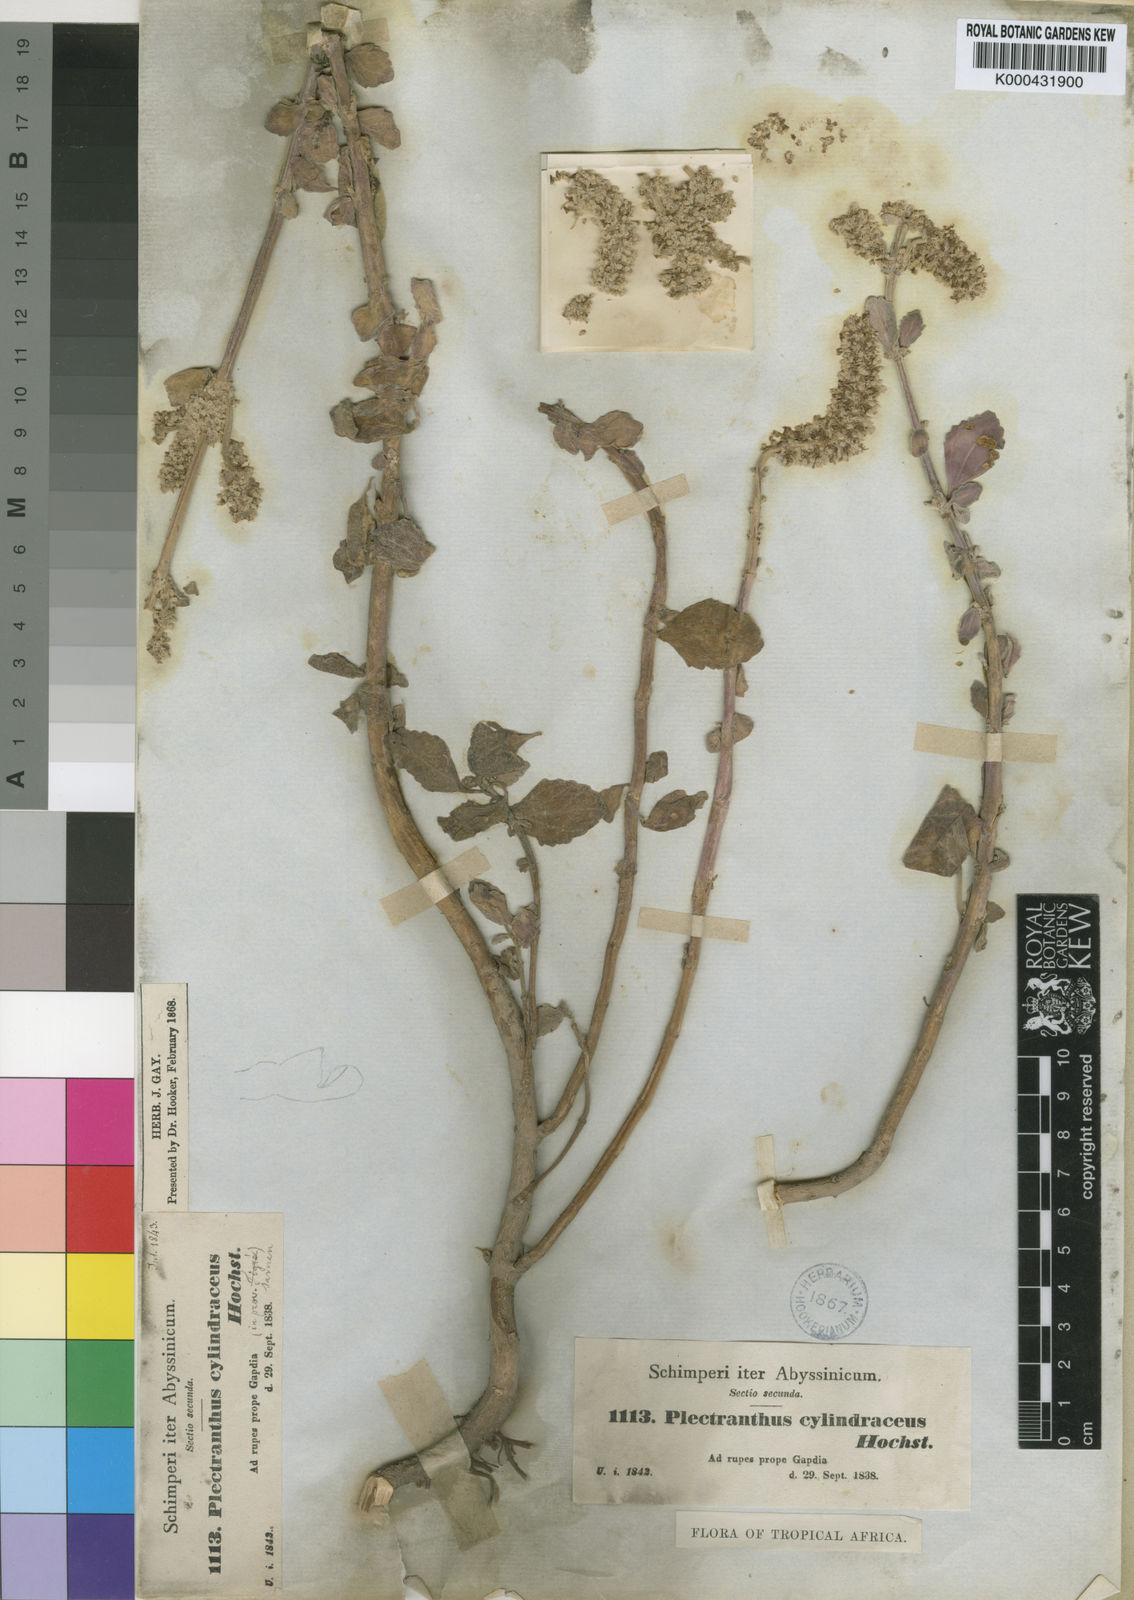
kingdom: Plantae
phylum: Tracheophyta
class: Magnoliopsida
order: Lamiales
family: Lamiaceae
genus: Coleus
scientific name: Coleus cylindraceus
